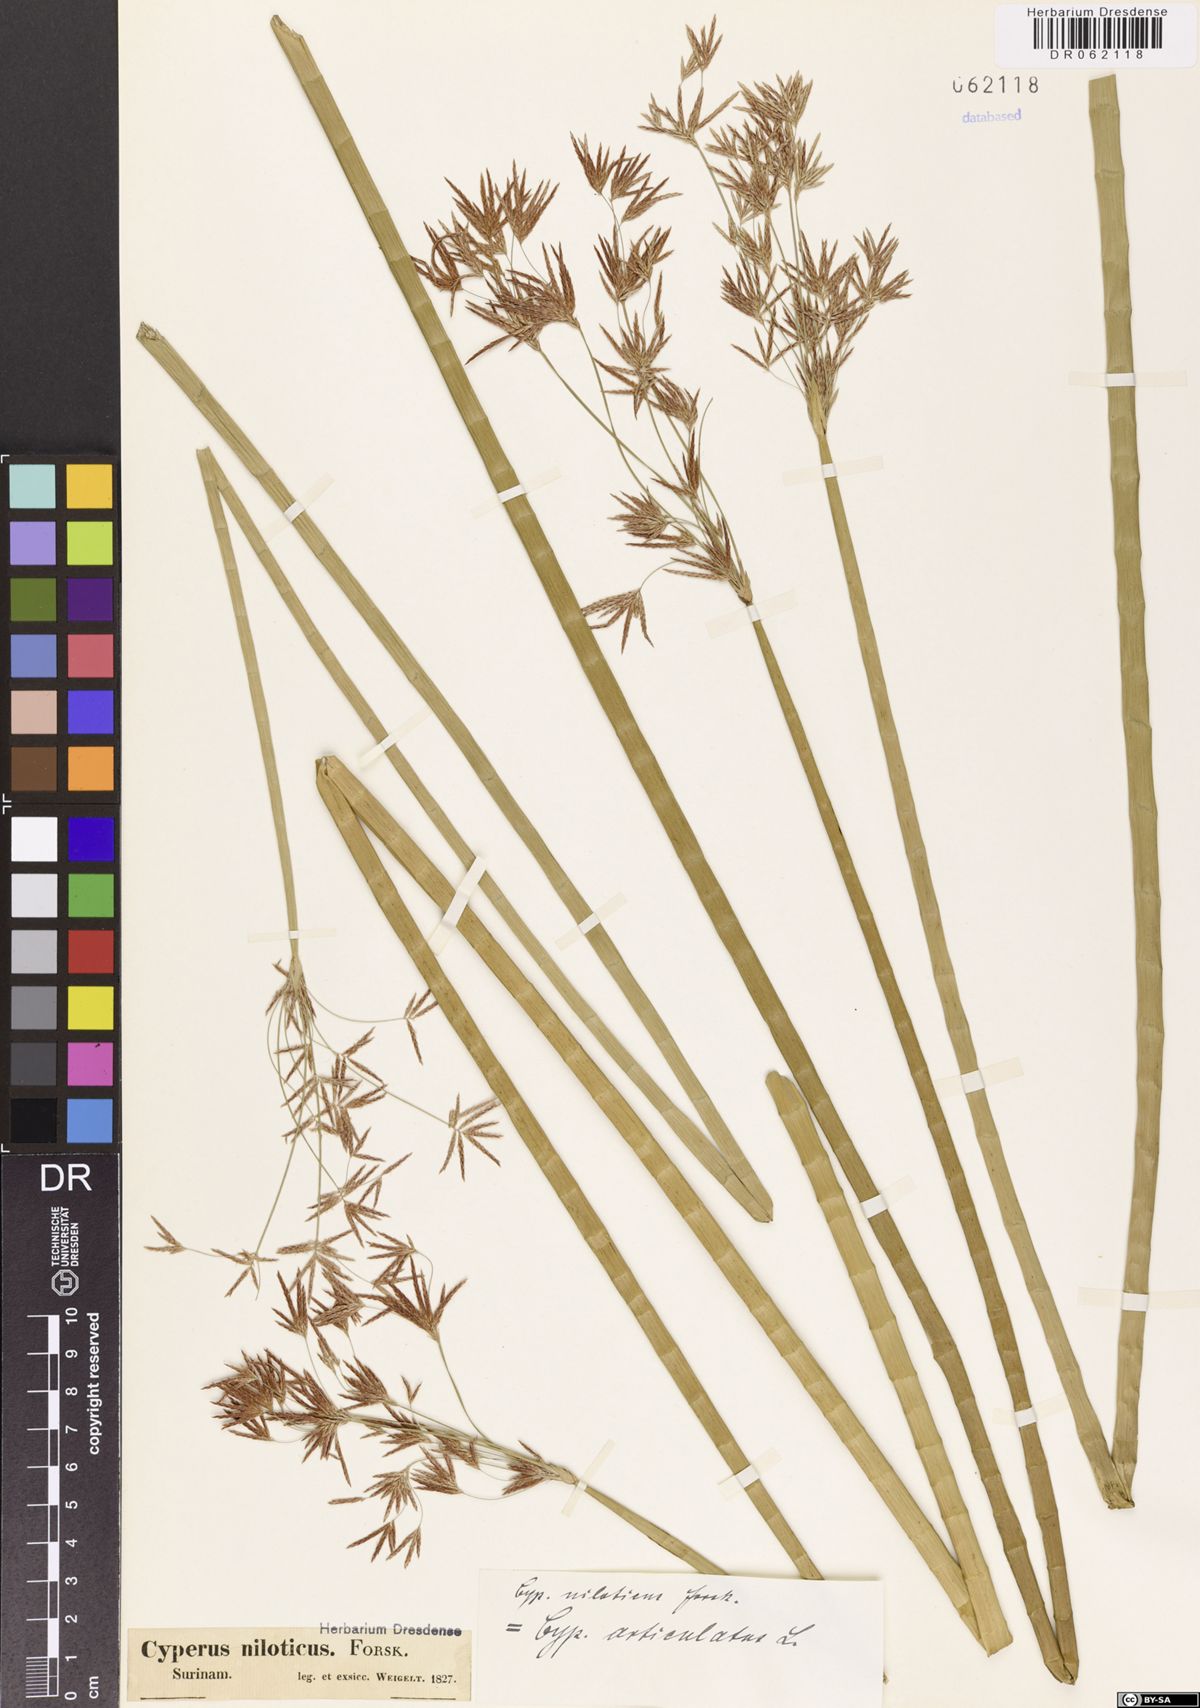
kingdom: Plantae
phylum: Tracheophyta
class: Liliopsida
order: Poales
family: Cyperaceae
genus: Cyperus
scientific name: Cyperus articulatus
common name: Jointed flatsedge
